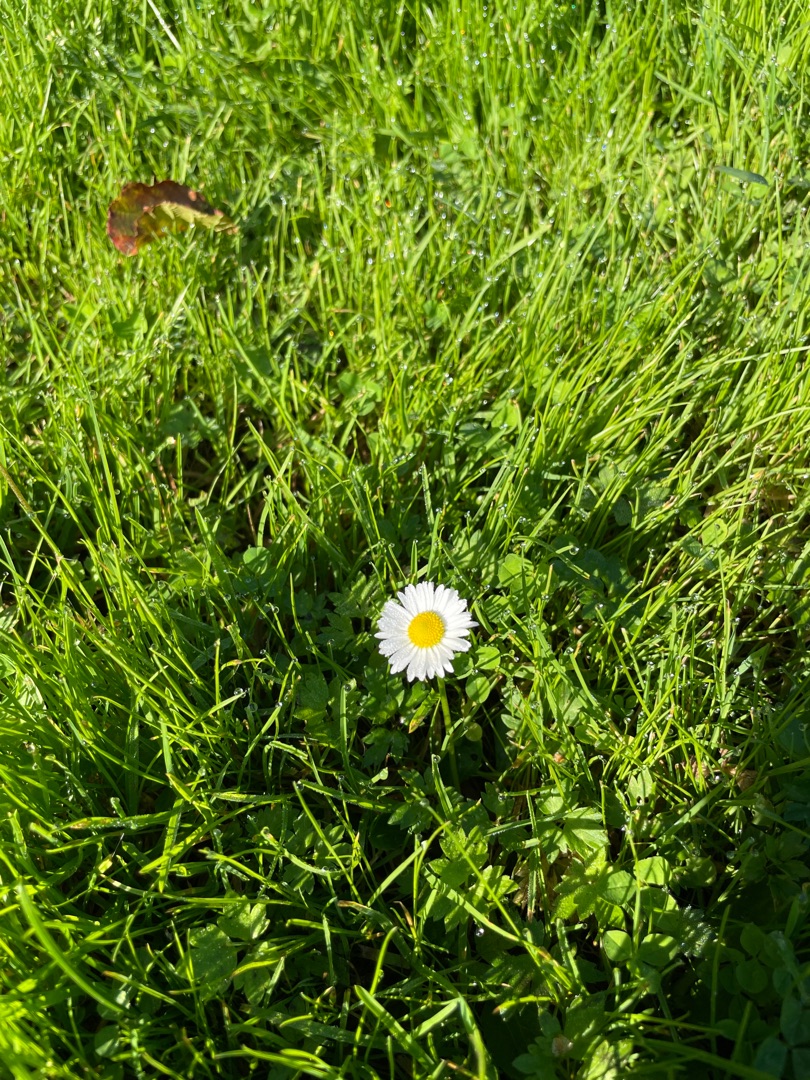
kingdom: Plantae
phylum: Tracheophyta
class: Magnoliopsida
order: Asterales
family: Asteraceae
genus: Bellis
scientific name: Bellis perennis
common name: Tusindfryd
